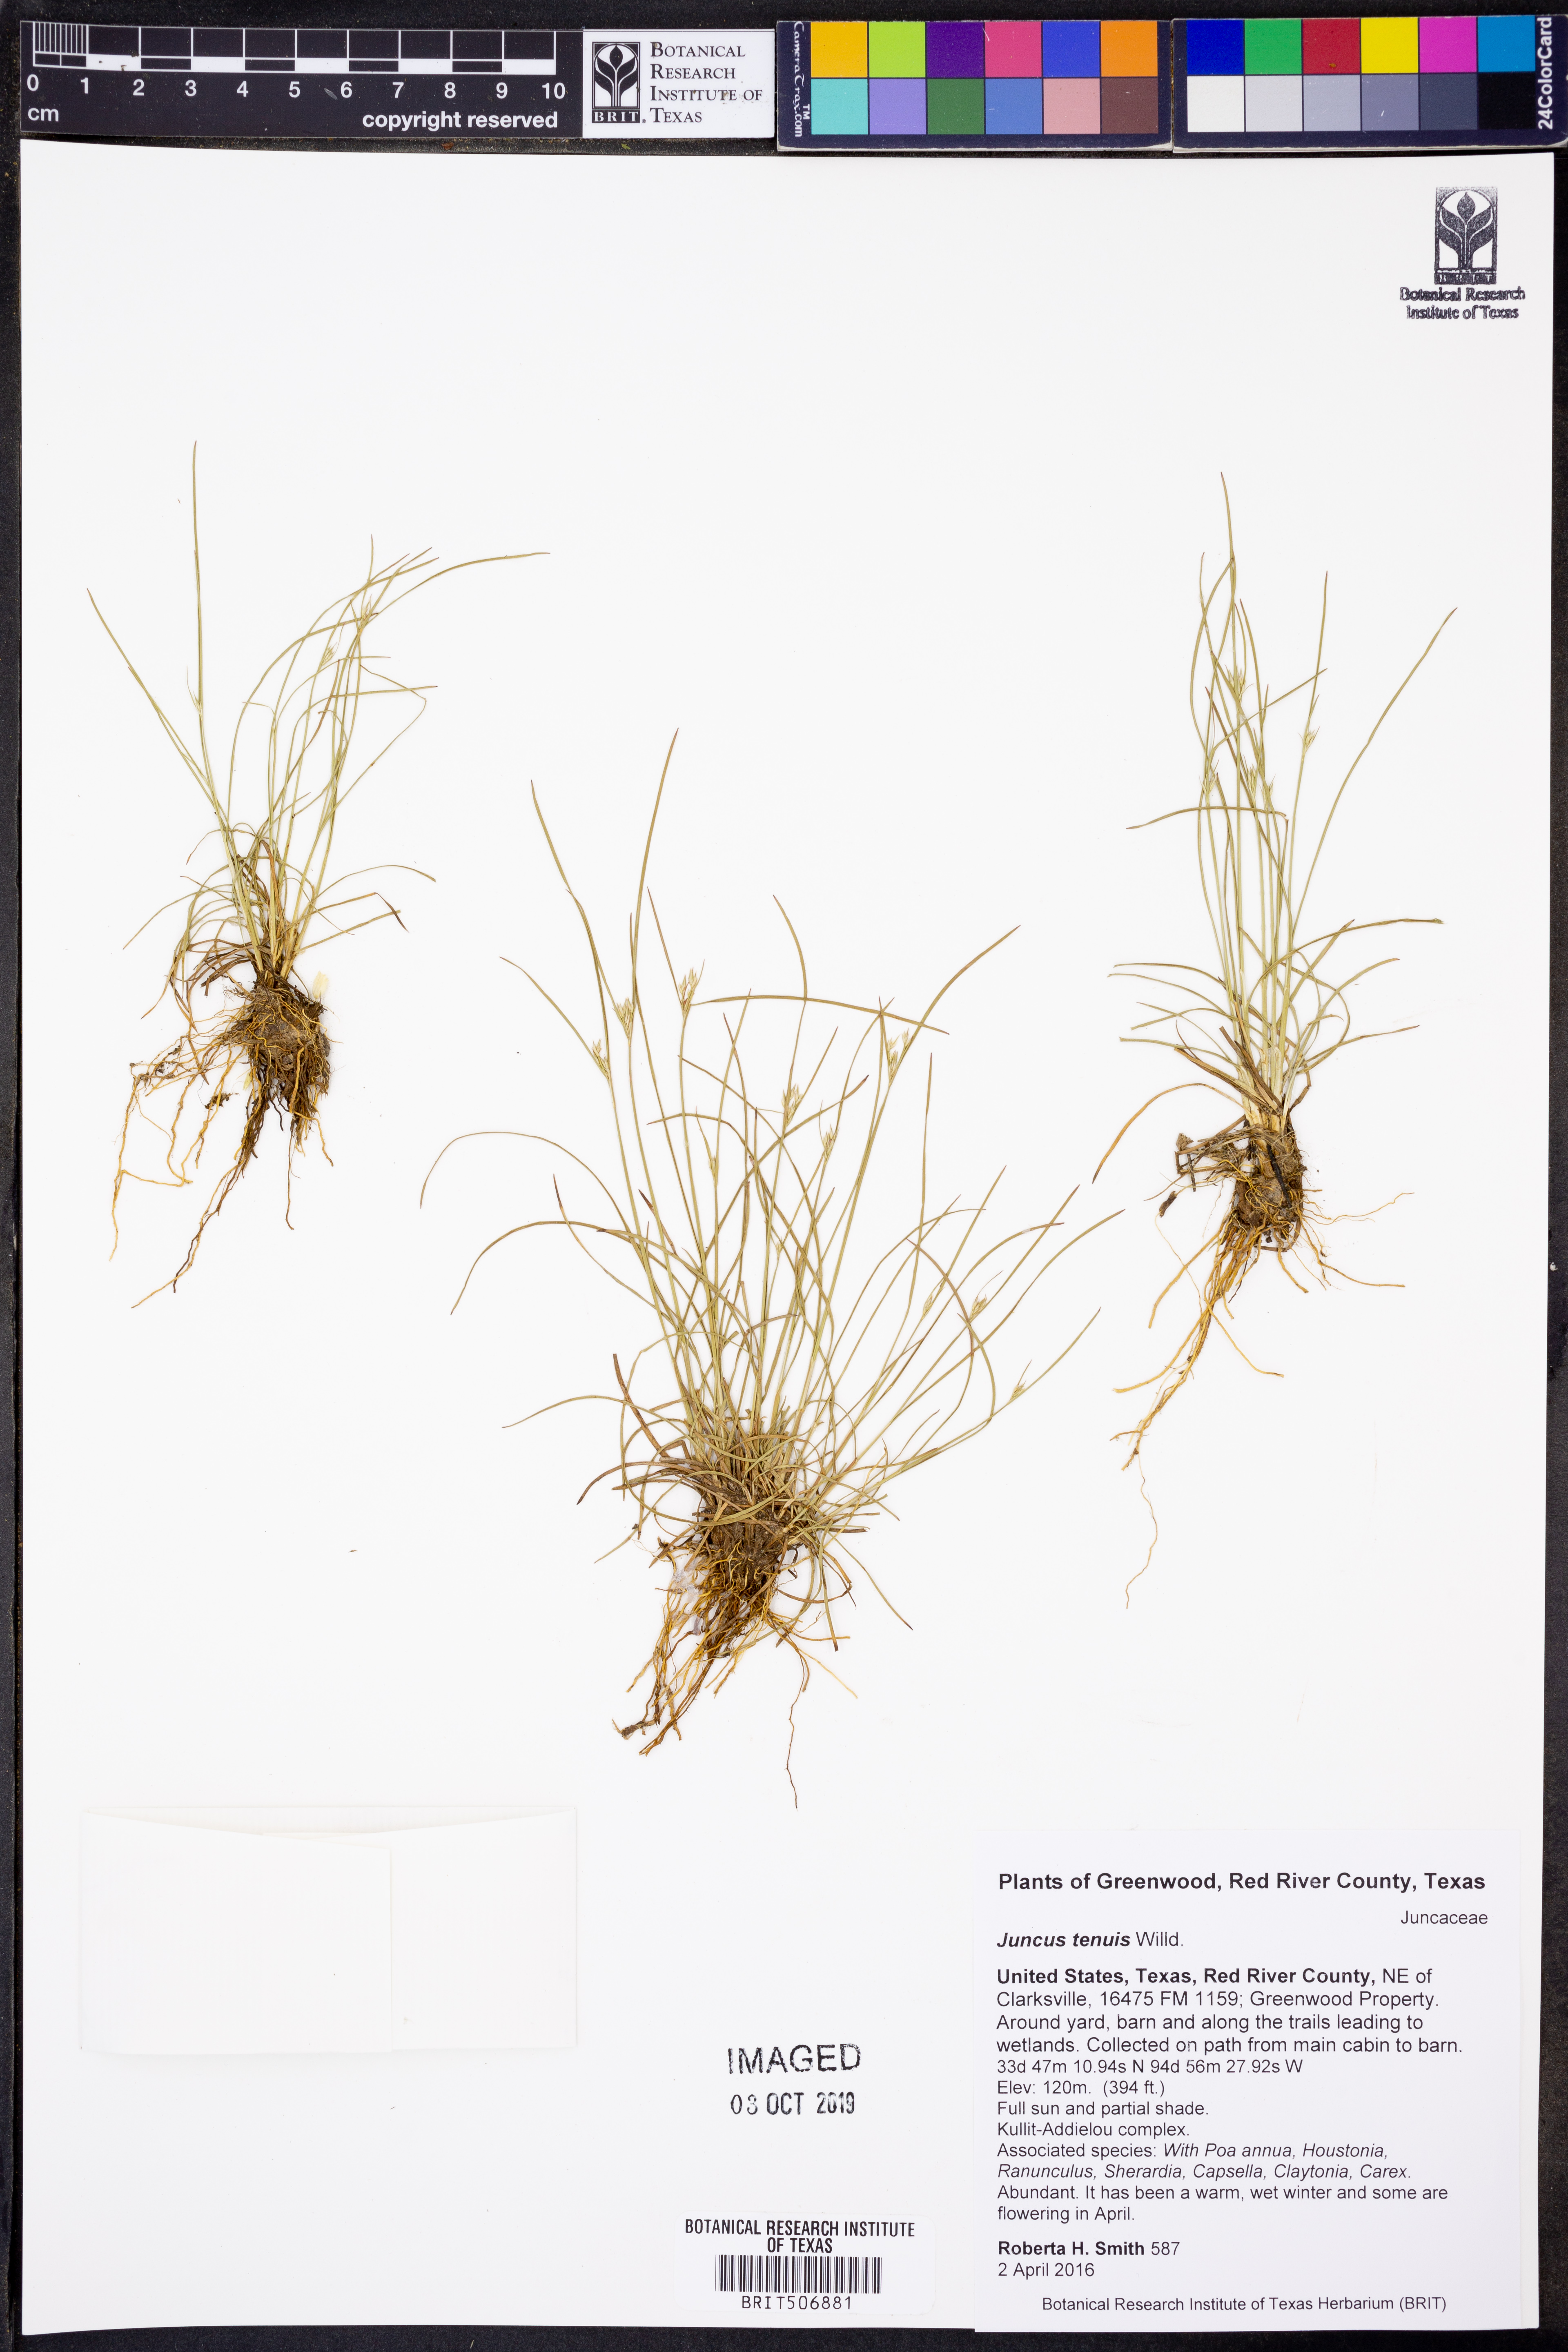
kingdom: Plantae
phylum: Tracheophyta
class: Liliopsida
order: Poales
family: Juncaceae
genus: Juncus
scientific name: Juncus tenuis
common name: Slender rush
